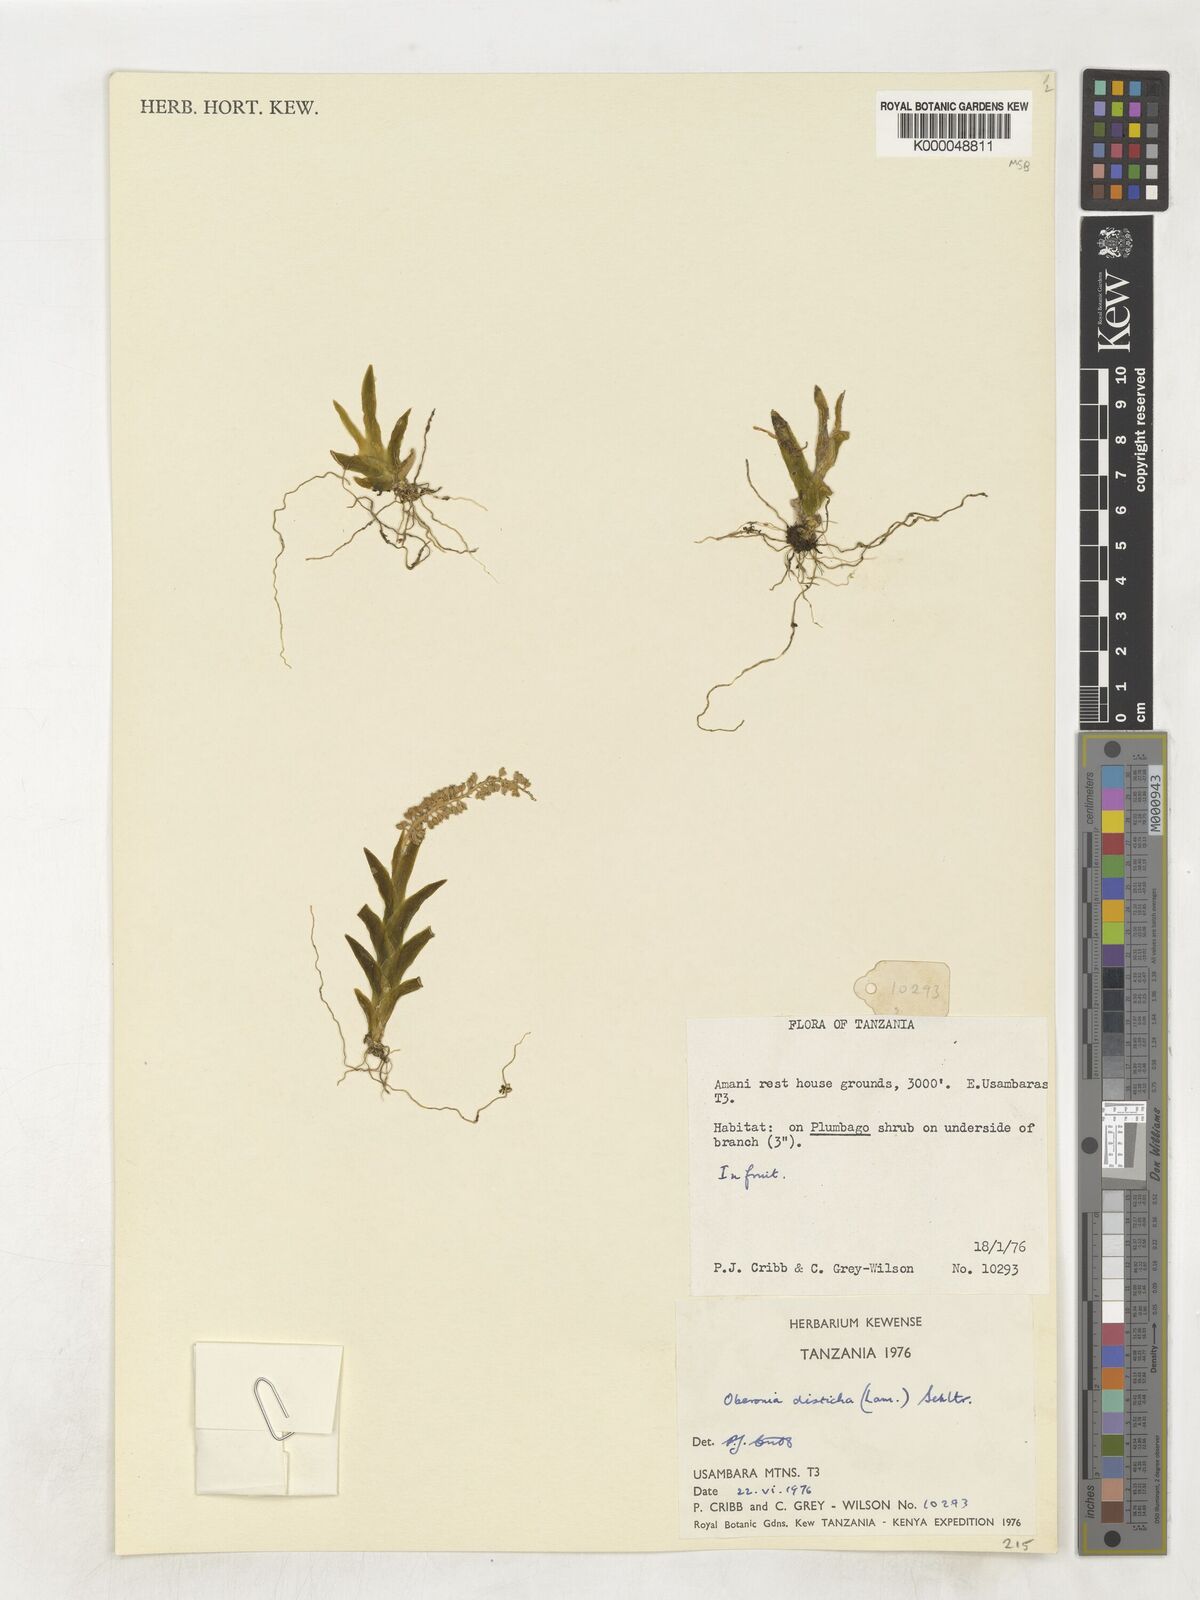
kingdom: Plantae
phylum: Tracheophyta
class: Liliopsida
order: Asparagales
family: Orchidaceae
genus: Oberonia
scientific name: Oberonia disticha
